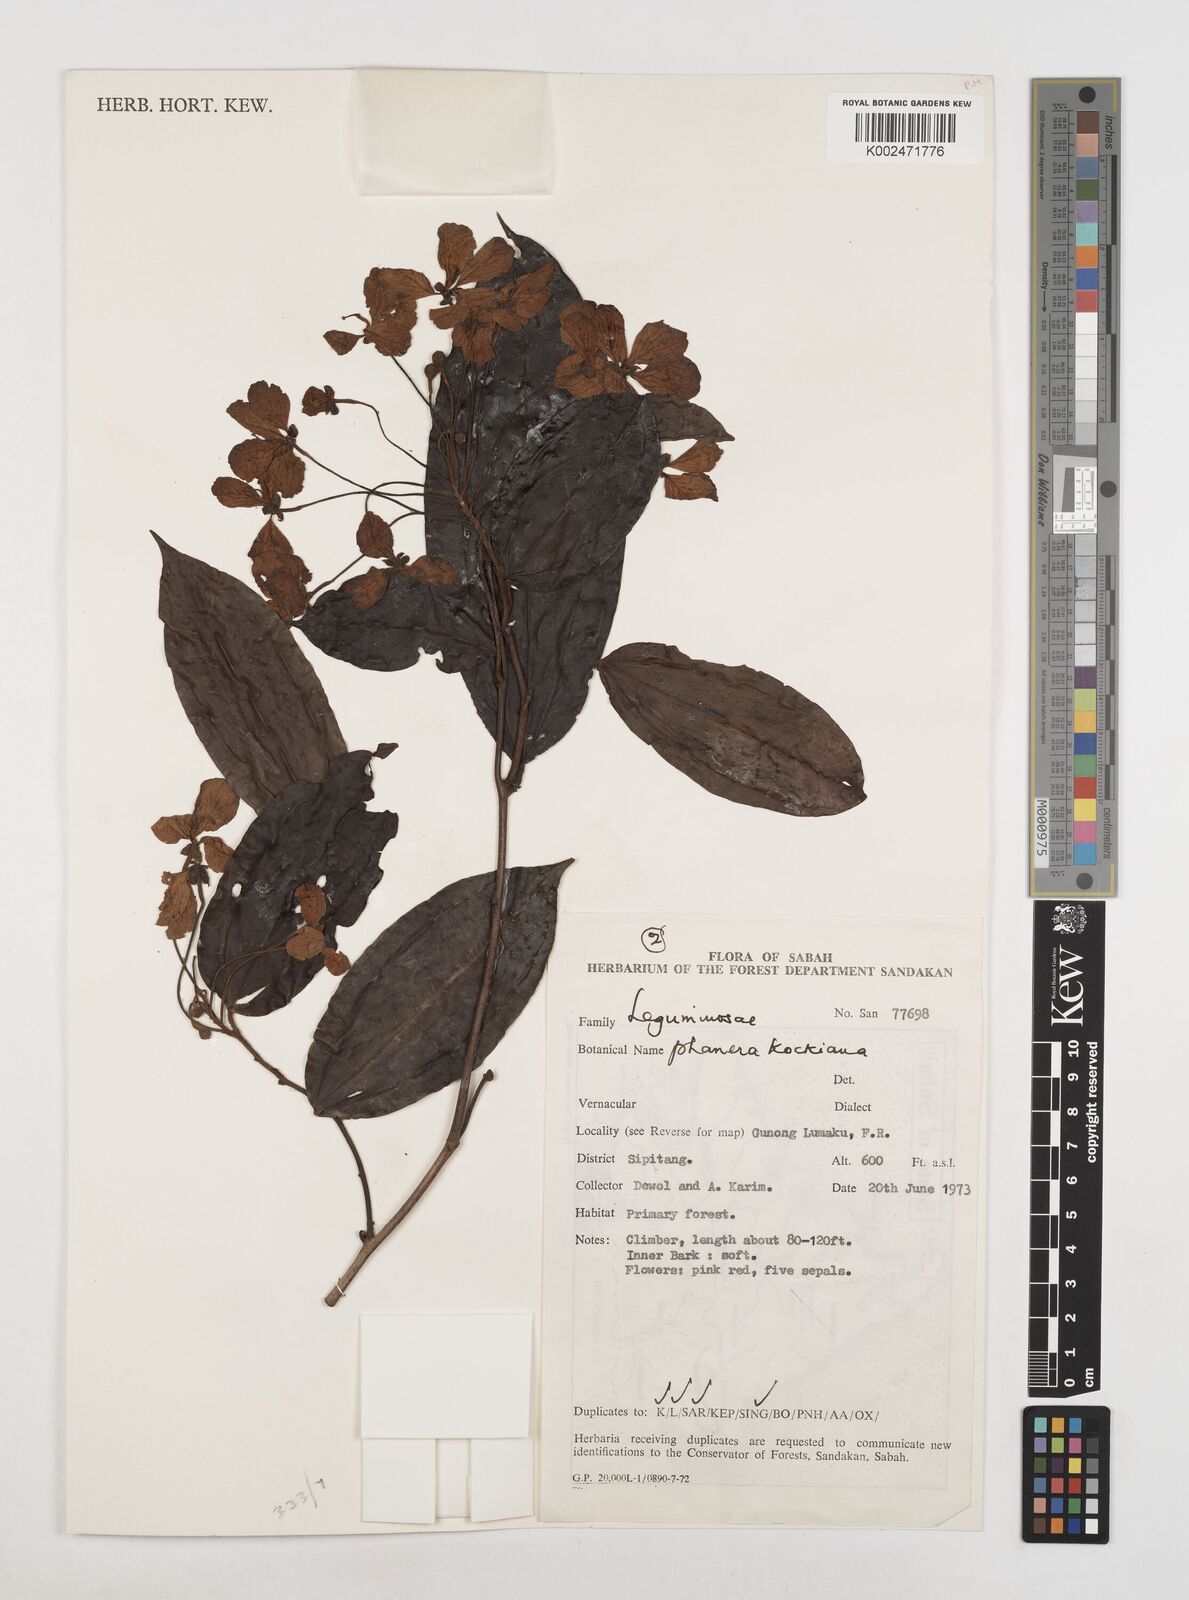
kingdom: Plantae
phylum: Tracheophyta
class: Magnoliopsida
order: Fabales
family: Fabaceae
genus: Phanera
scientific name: Phanera kockiana
